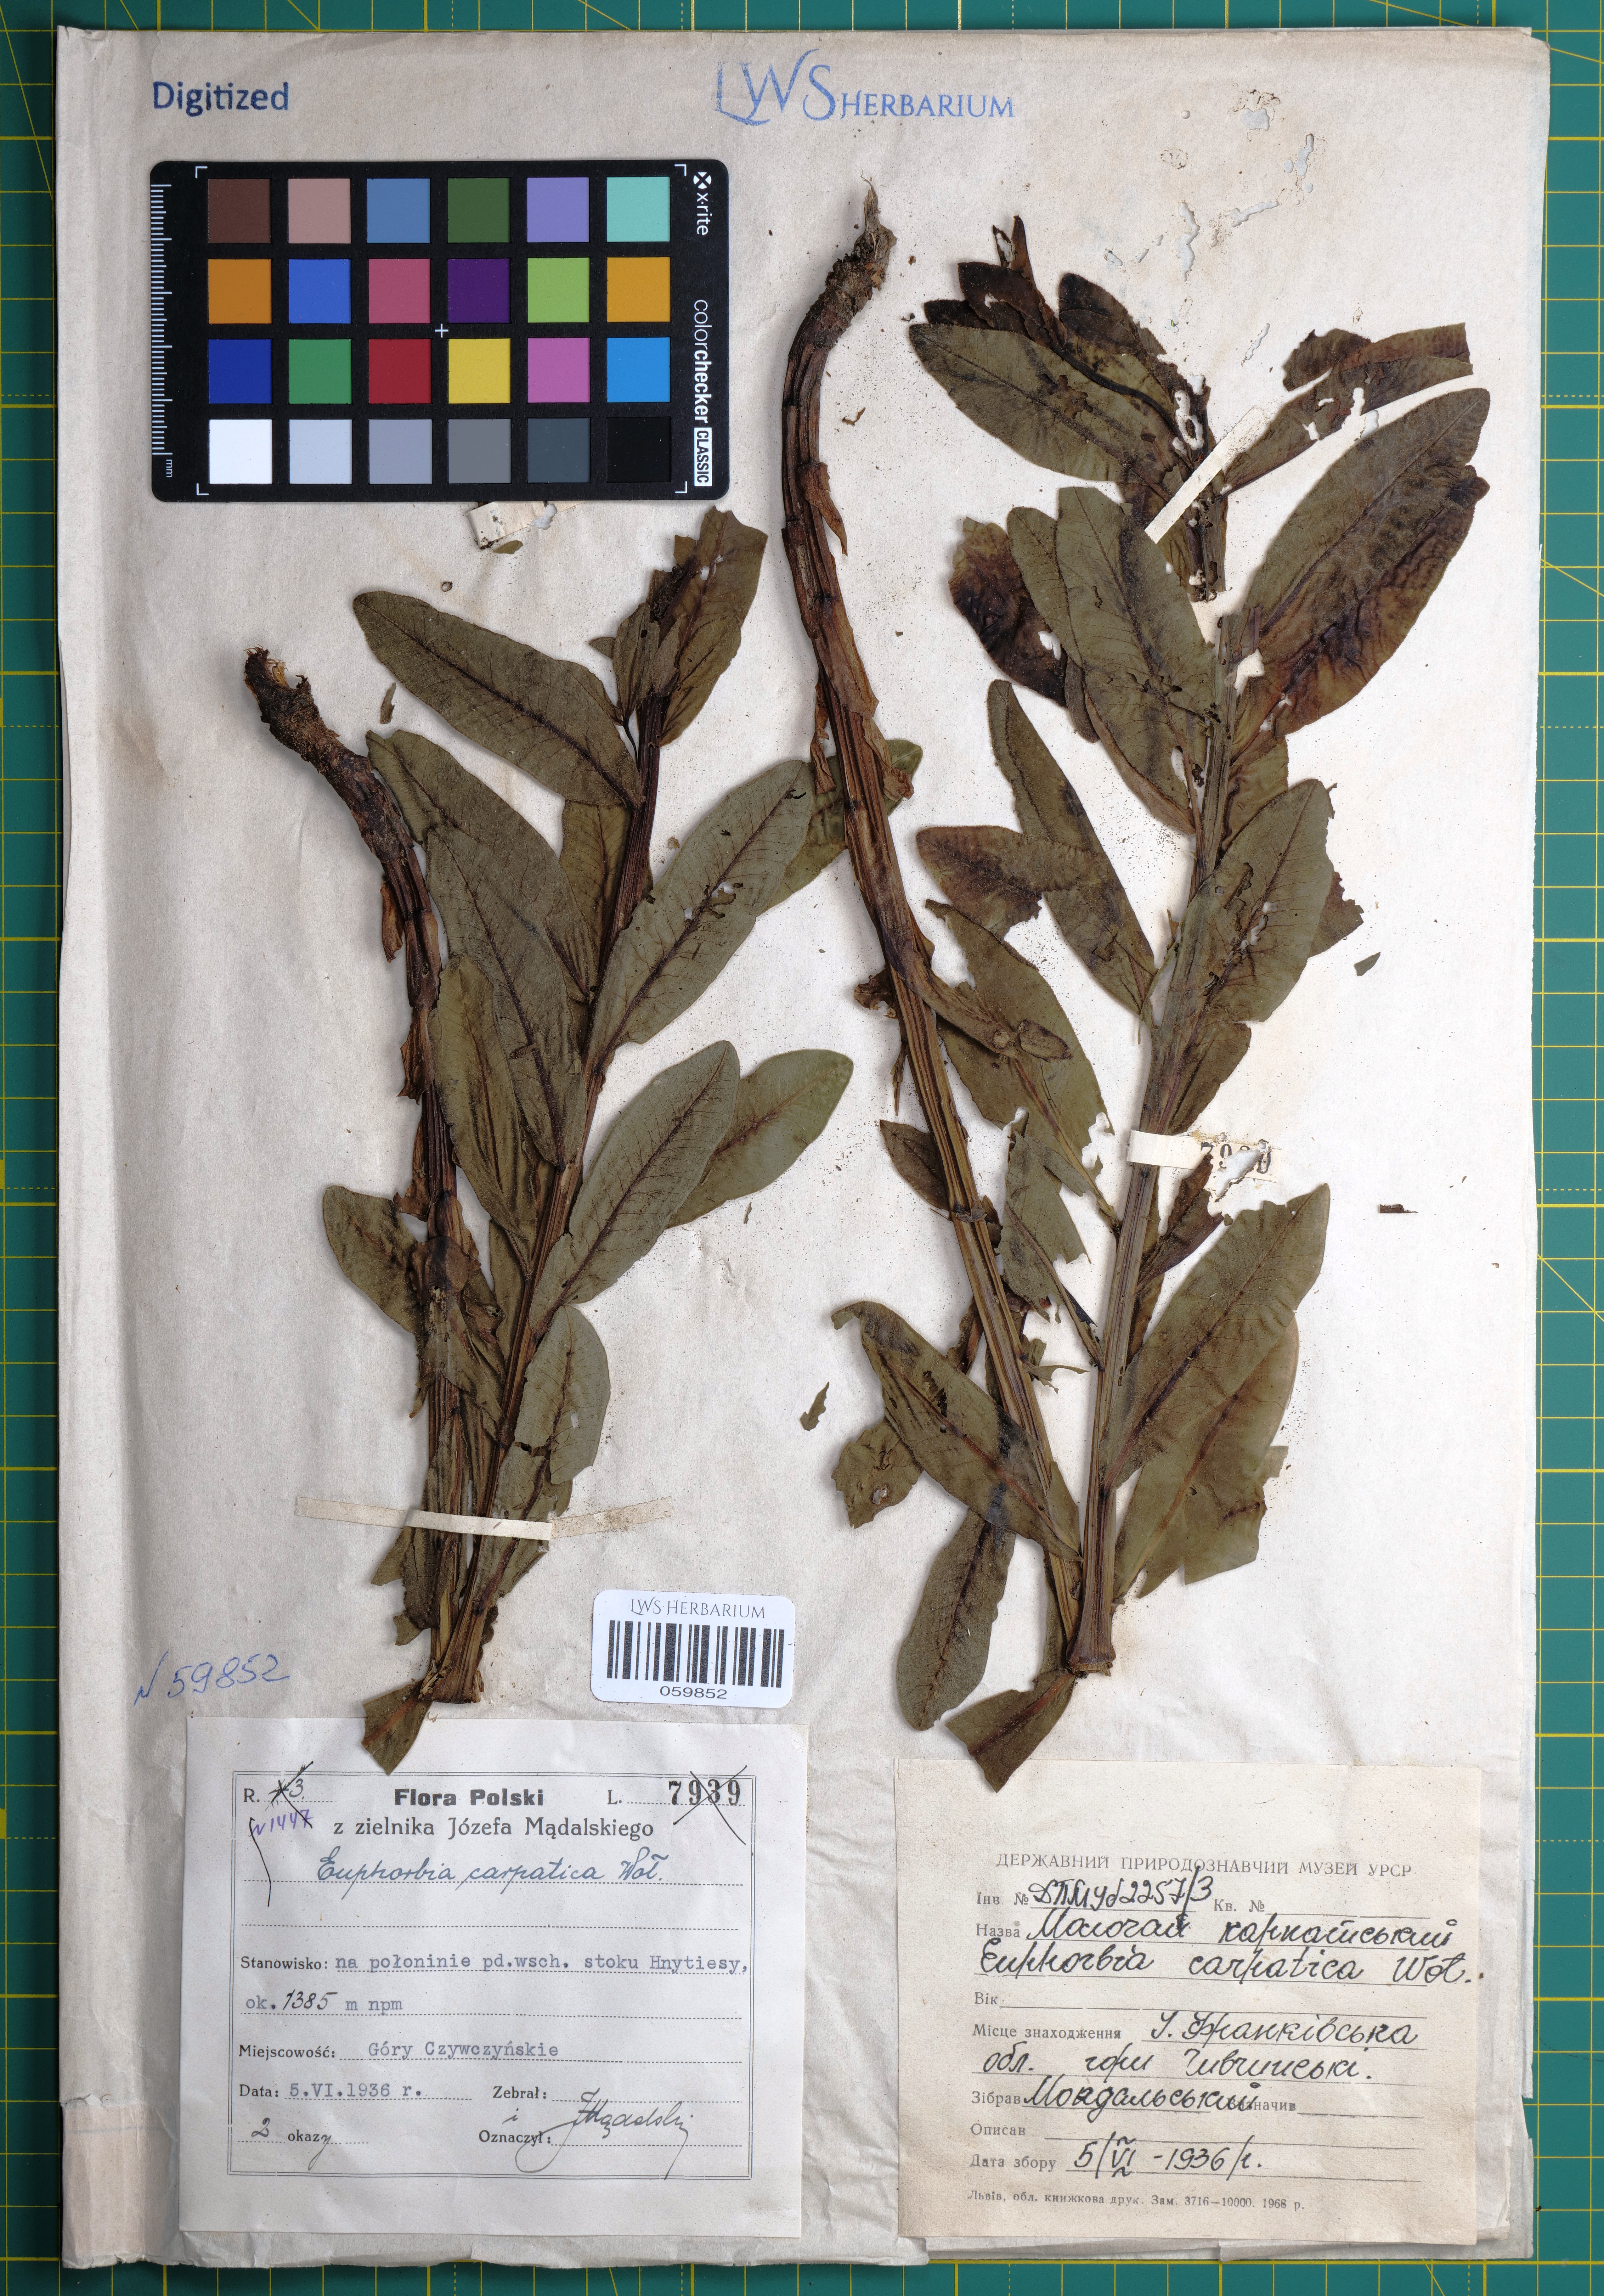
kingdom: Plantae
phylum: Tracheophyta
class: Magnoliopsida
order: Malpighiales
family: Euphorbiaceae
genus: Euphorbia
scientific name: Euphorbia carpatica
